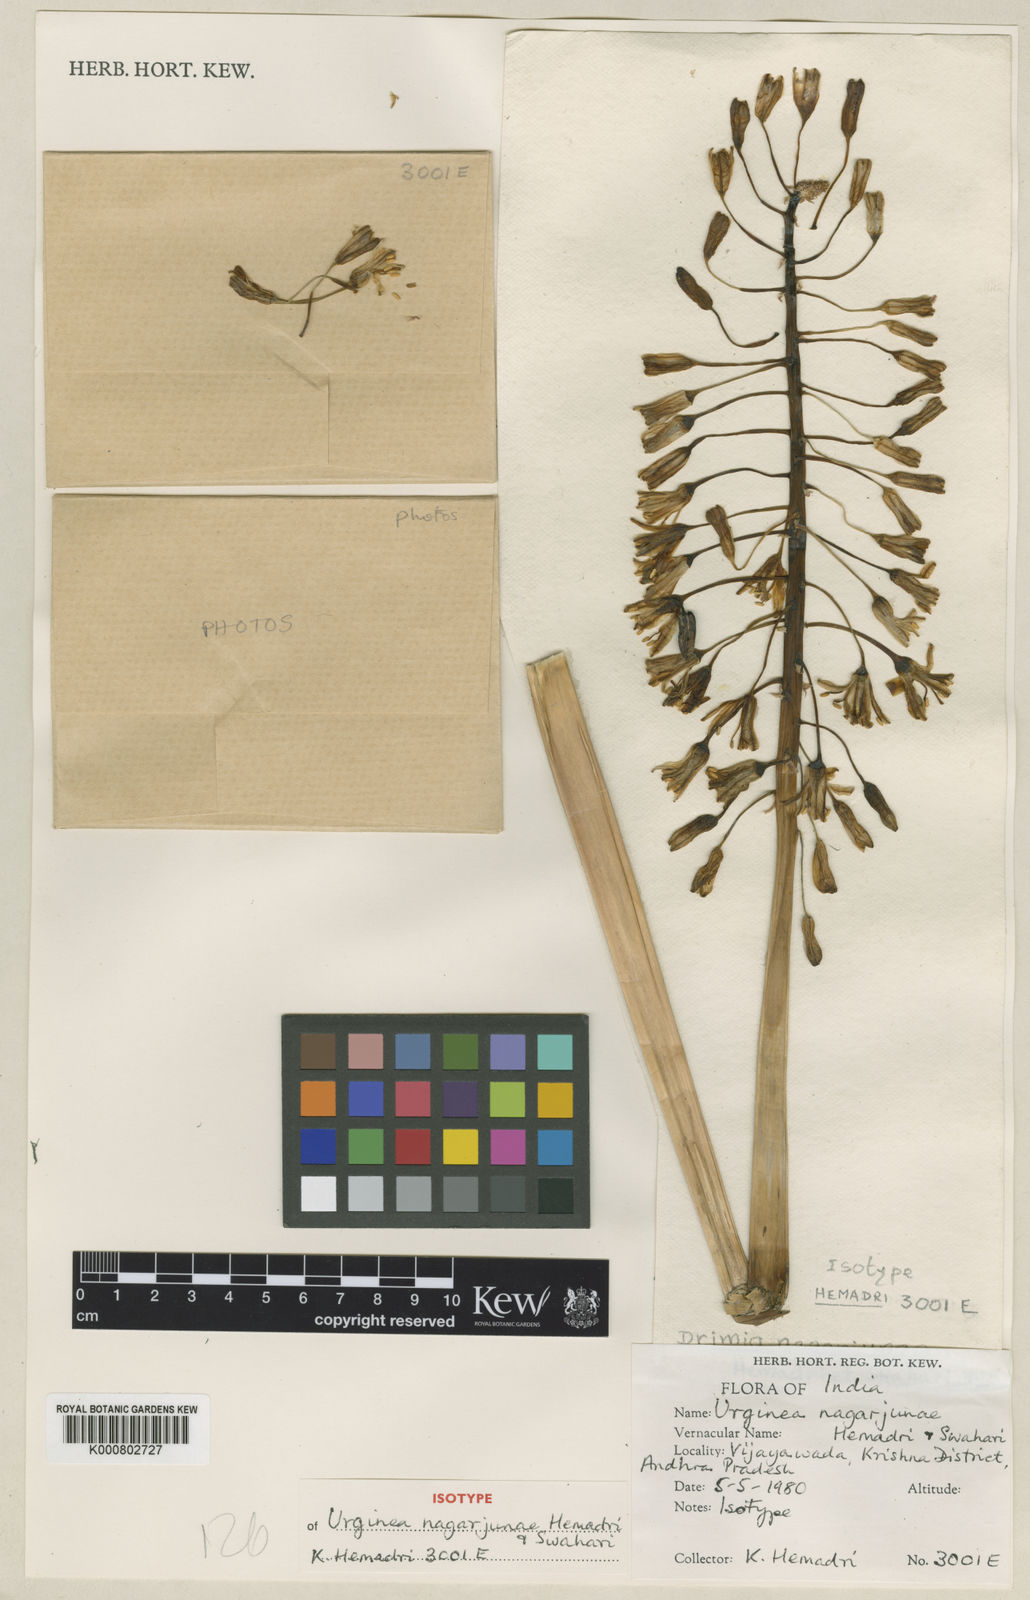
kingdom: Plantae
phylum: Tracheophyta
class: Liliopsida
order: Asparagales
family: Asparagaceae
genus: Drimia
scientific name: Drimia
